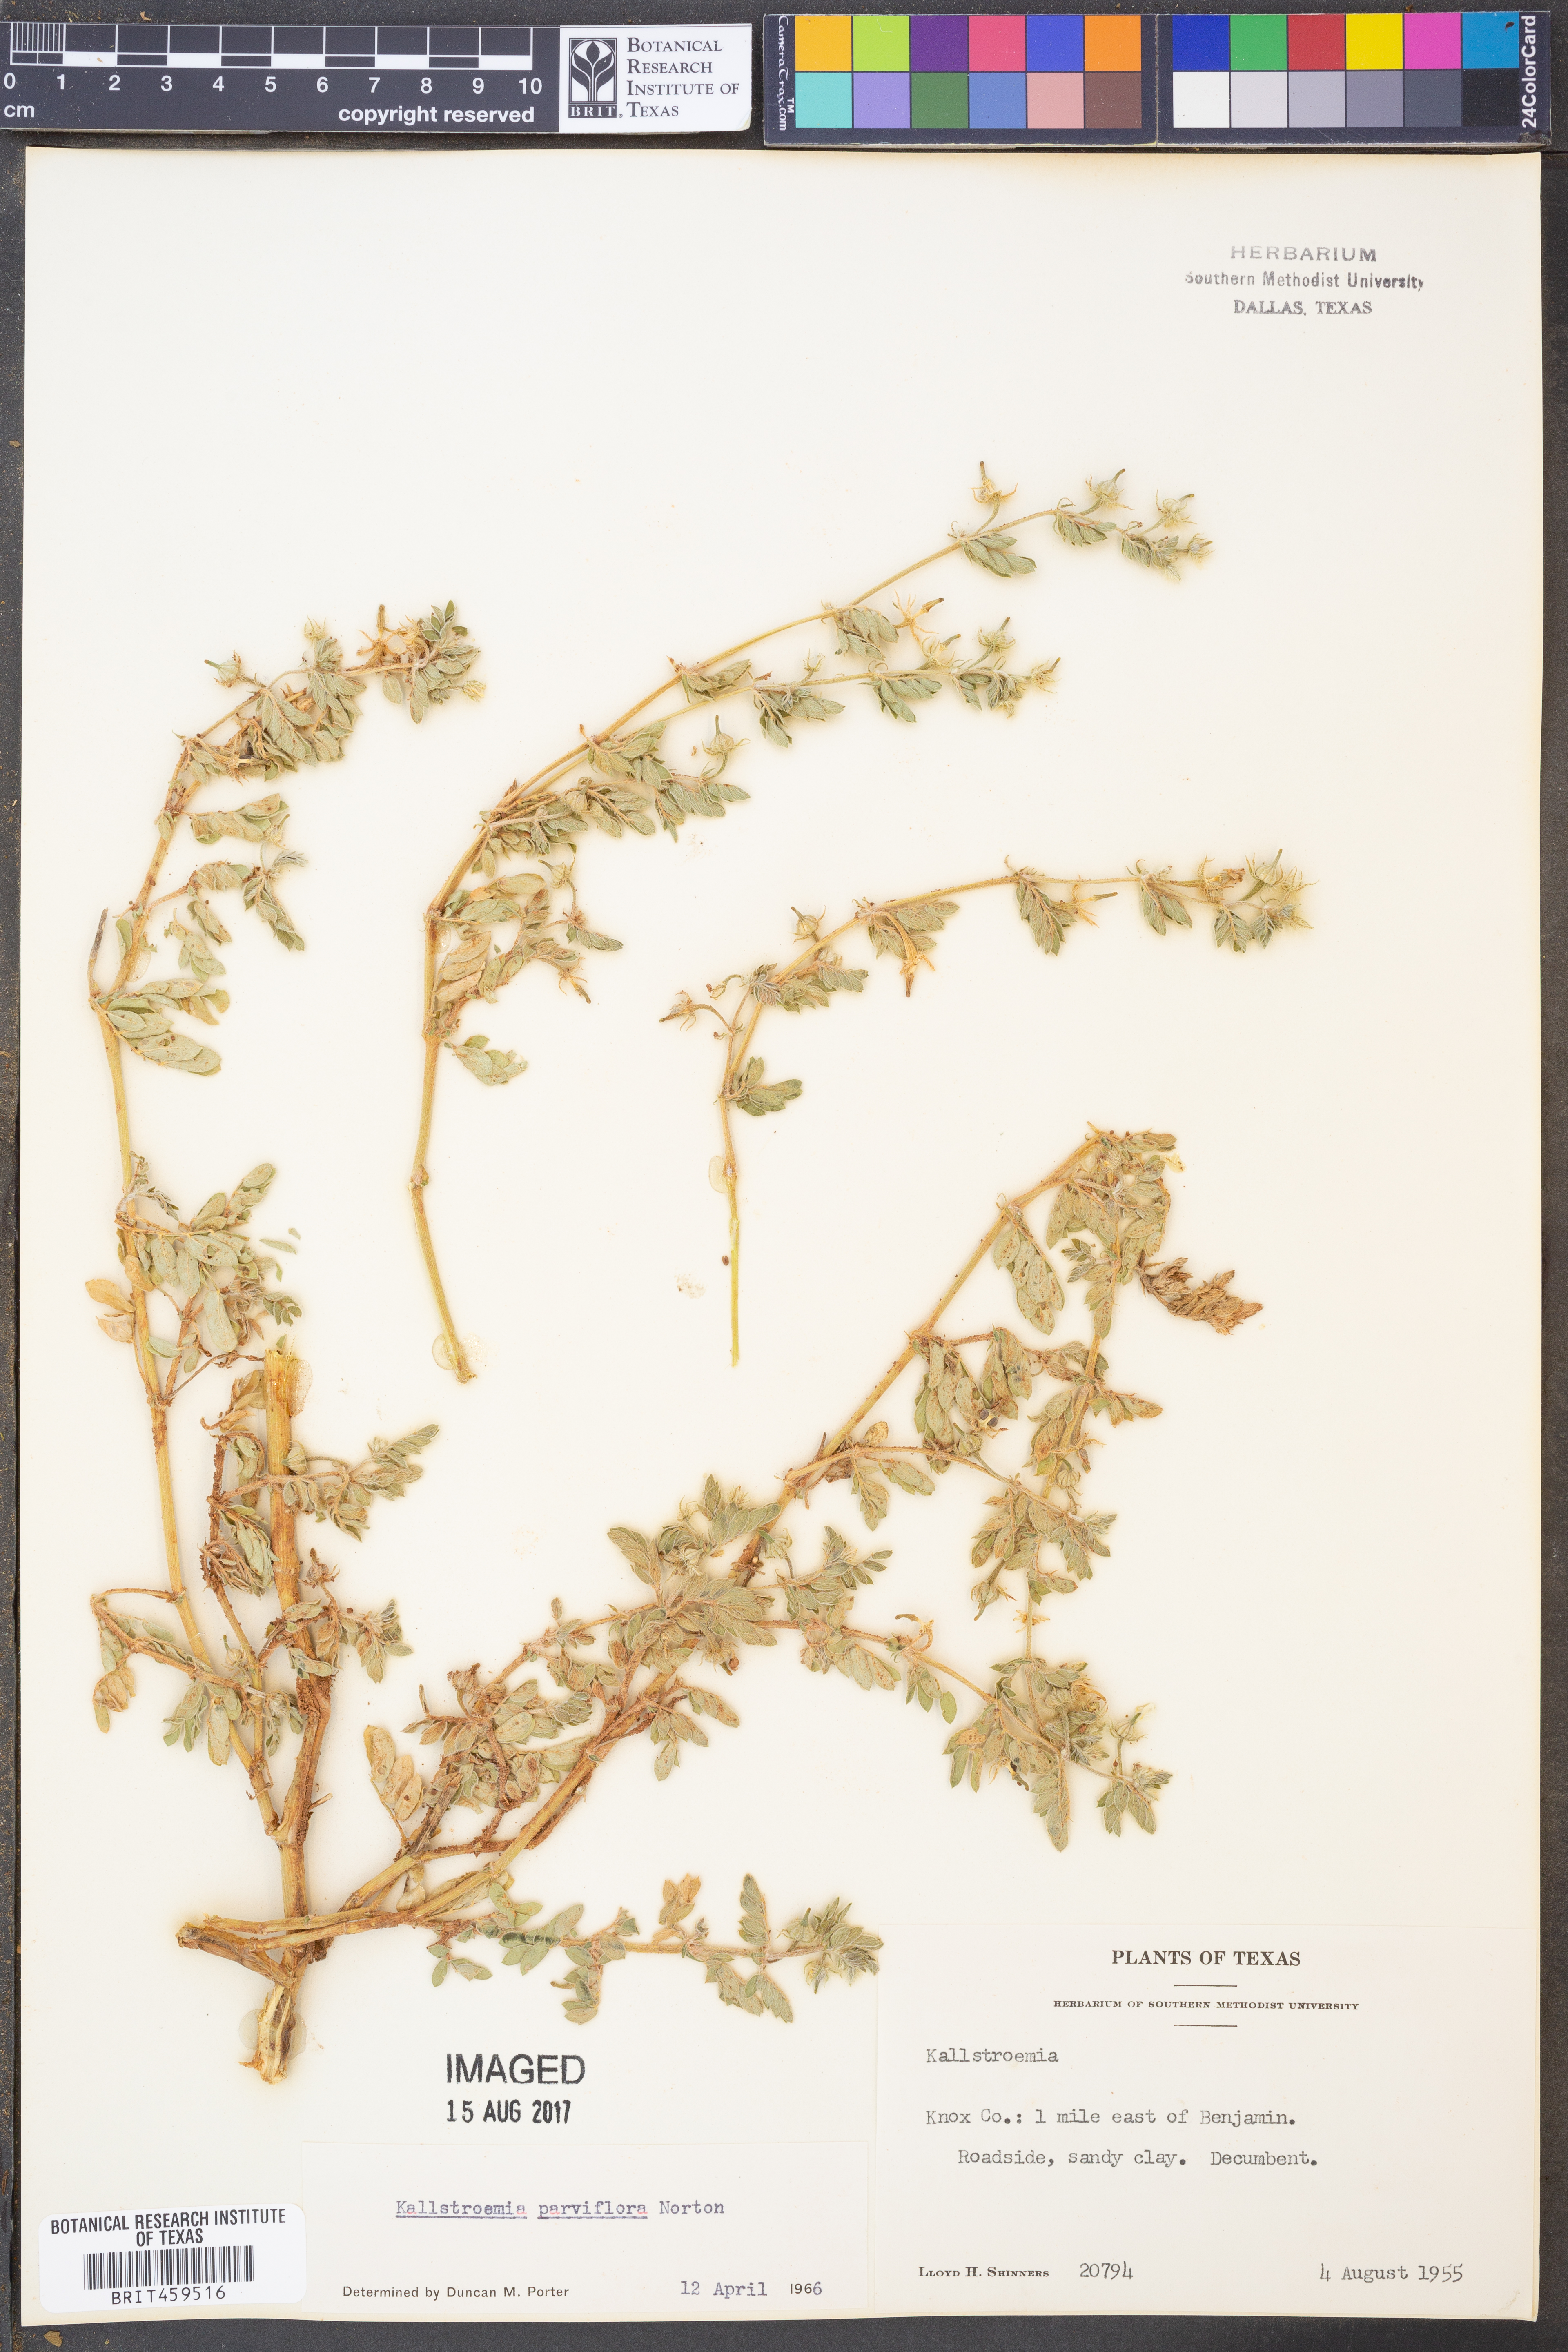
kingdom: Plantae
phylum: Tracheophyta
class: Magnoliopsida
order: Zygophyllales
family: Zygophyllaceae
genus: Kallstroemia
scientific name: Kallstroemia parviflora
